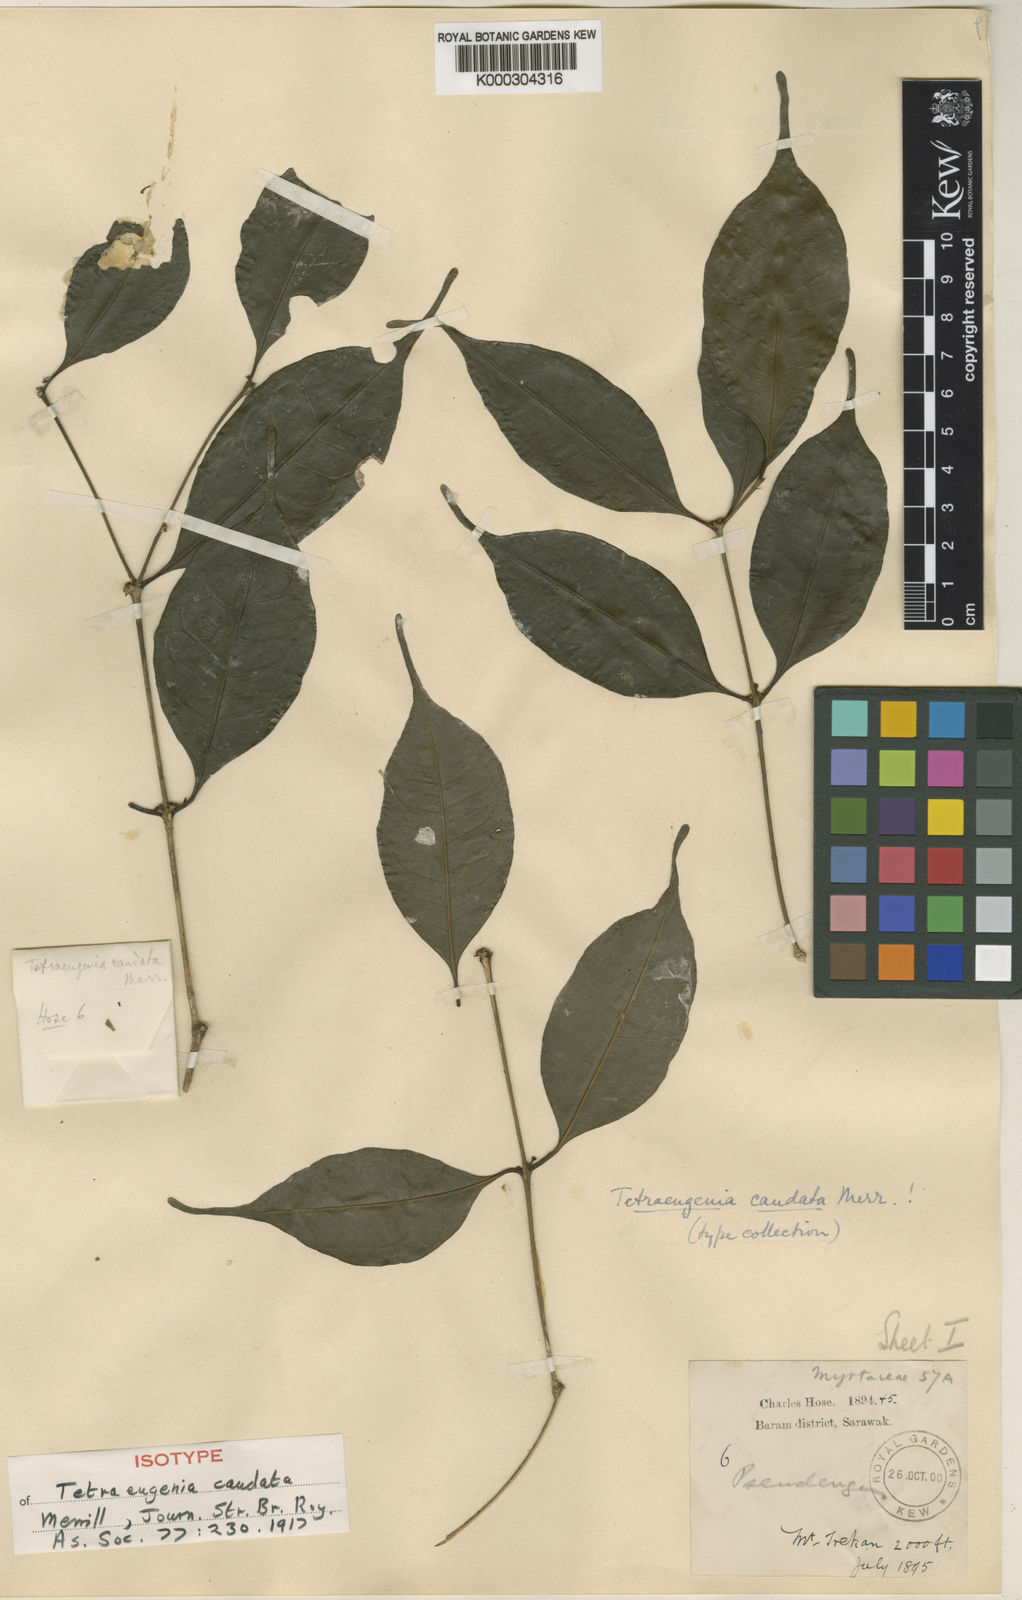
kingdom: Plantae
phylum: Tracheophyta
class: Magnoliopsida
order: Myrtales
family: Myrtaceae
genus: Syzygium
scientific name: Syzygium caudatum
